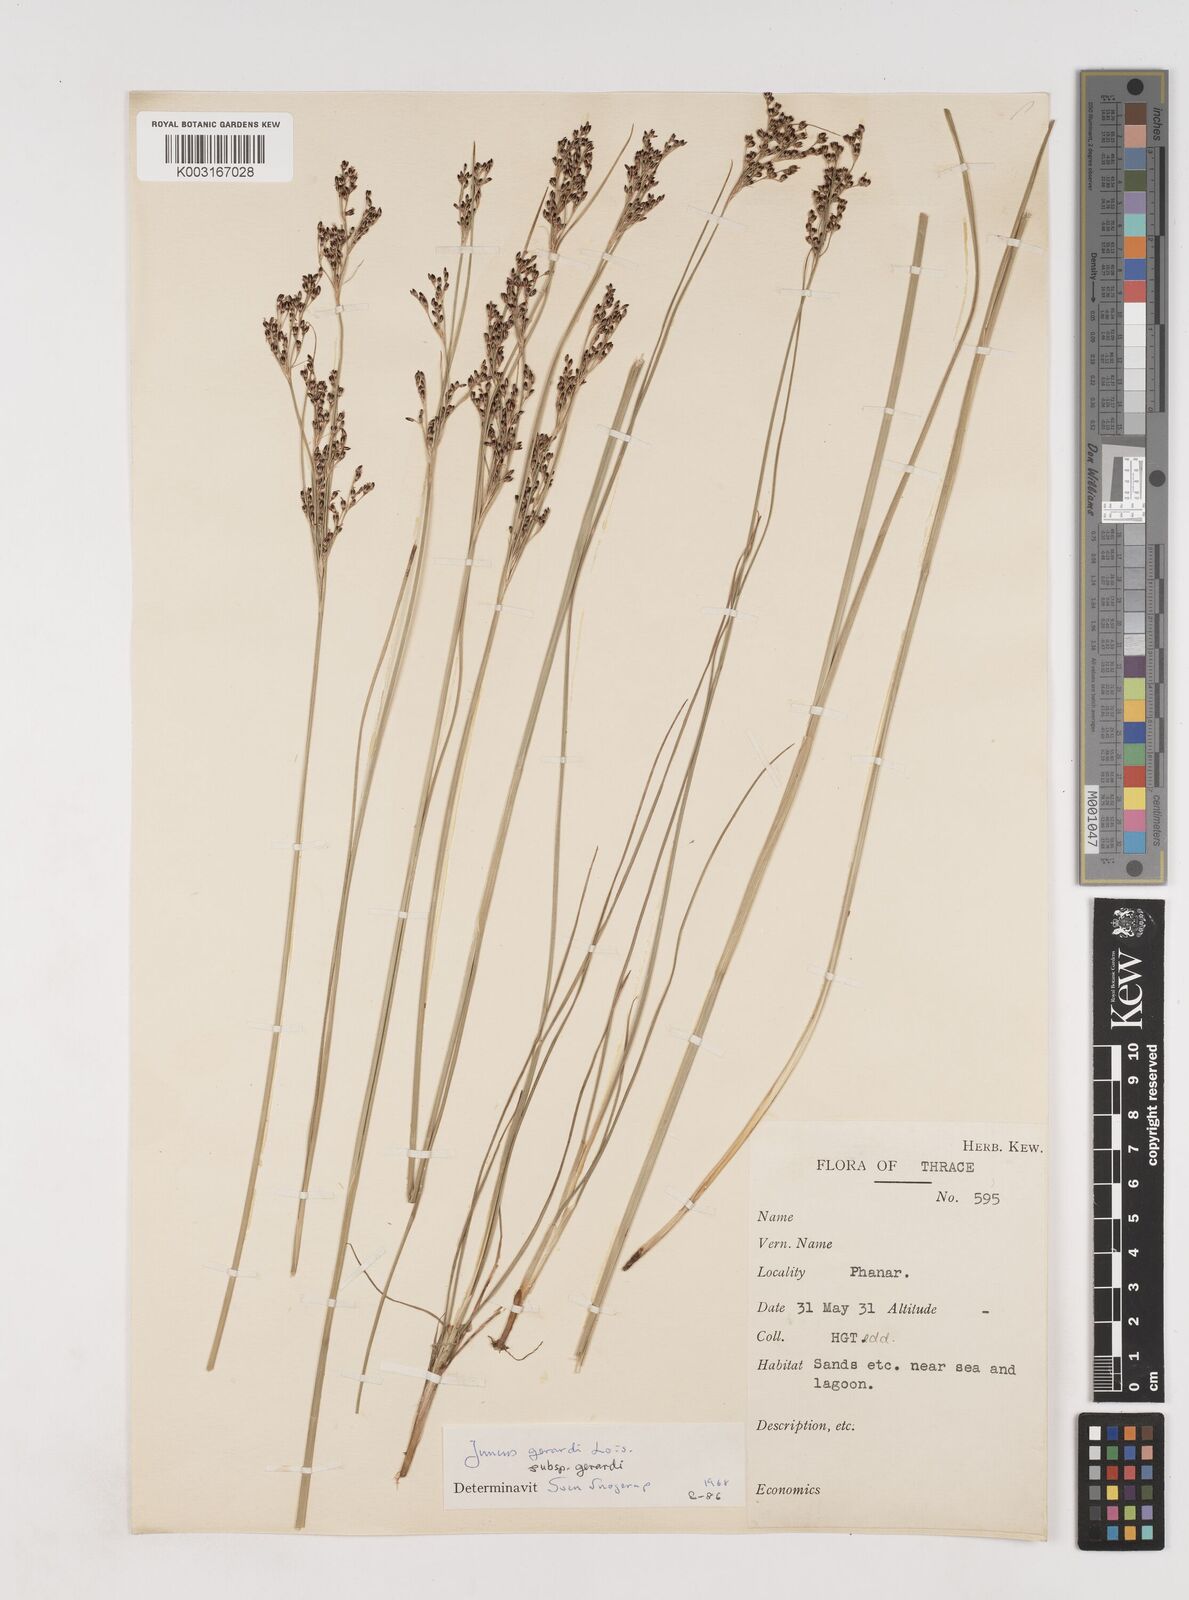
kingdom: Plantae
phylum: Tracheophyta
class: Liliopsida
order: Poales
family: Juncaceae
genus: Juncus
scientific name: Juncus gerardi
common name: Saltmarsh rush
